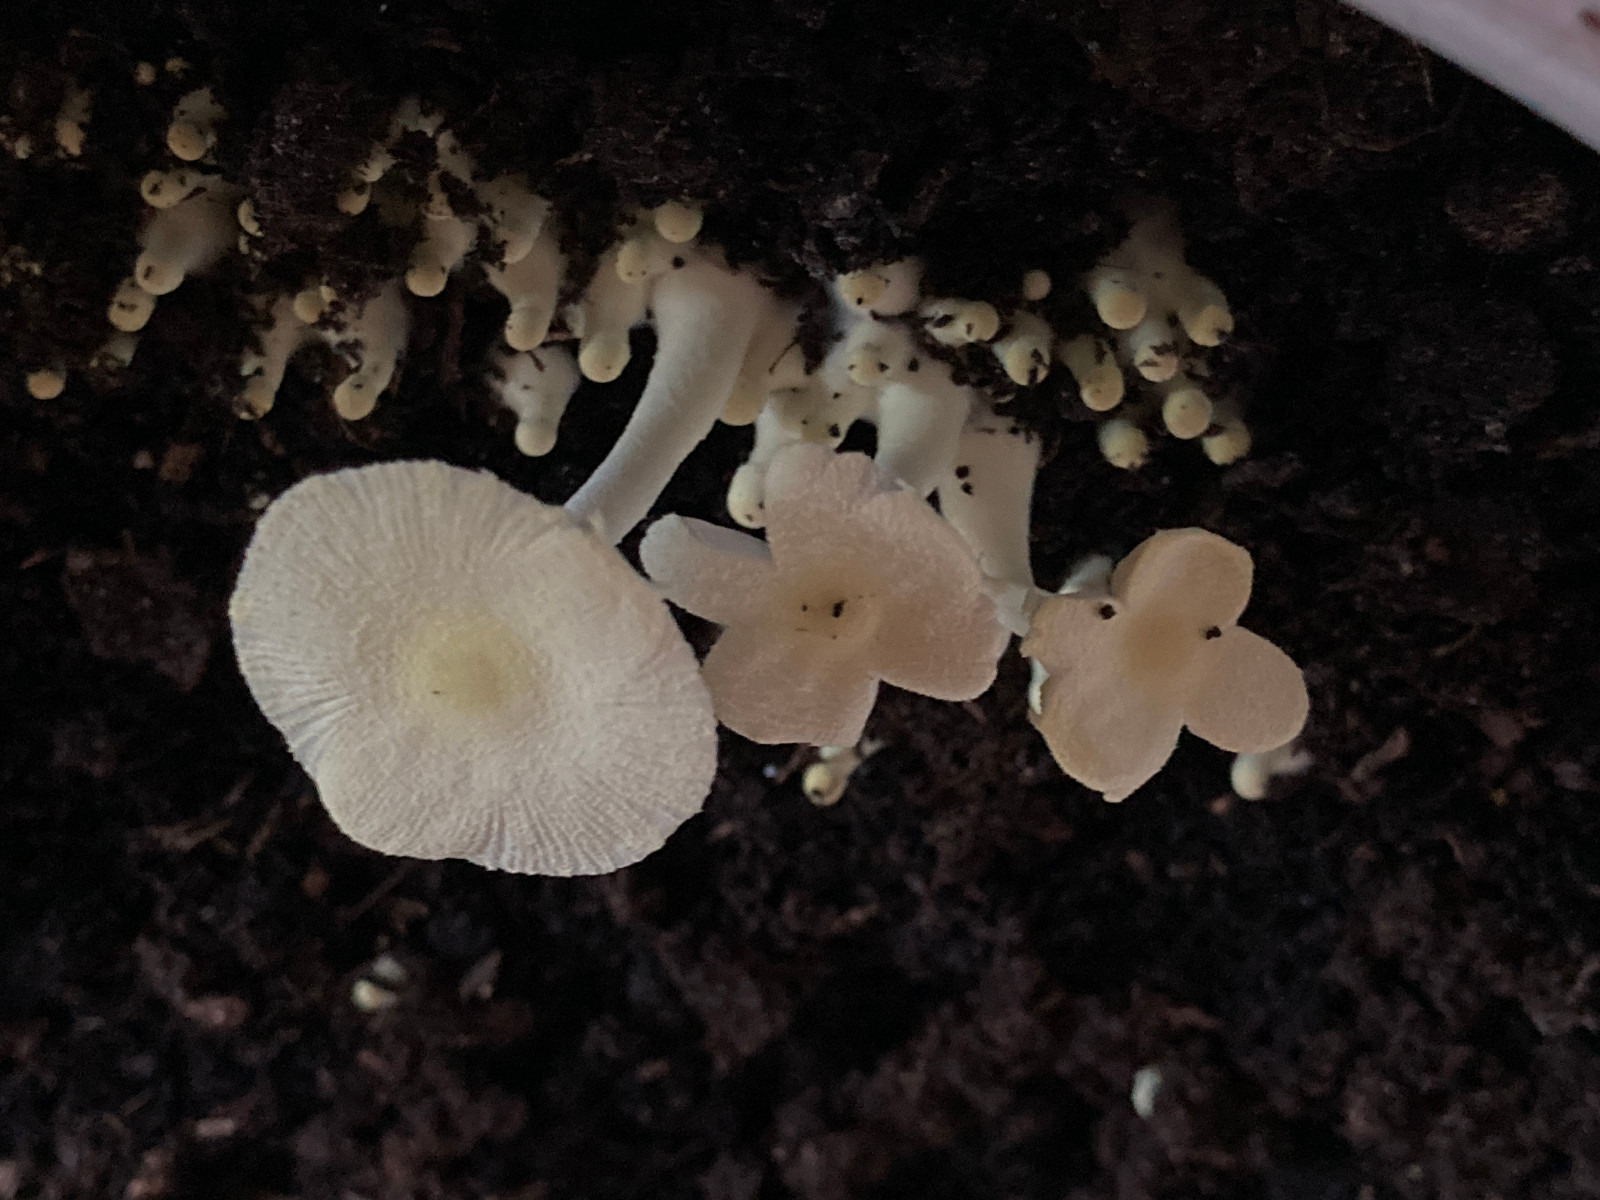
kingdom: Fungi
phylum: Basidiomycota
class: Agaricomycetes
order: Agaricales
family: Agaricaceae
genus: Leucocoprinus
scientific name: Leucocoprinus
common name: silkehat
